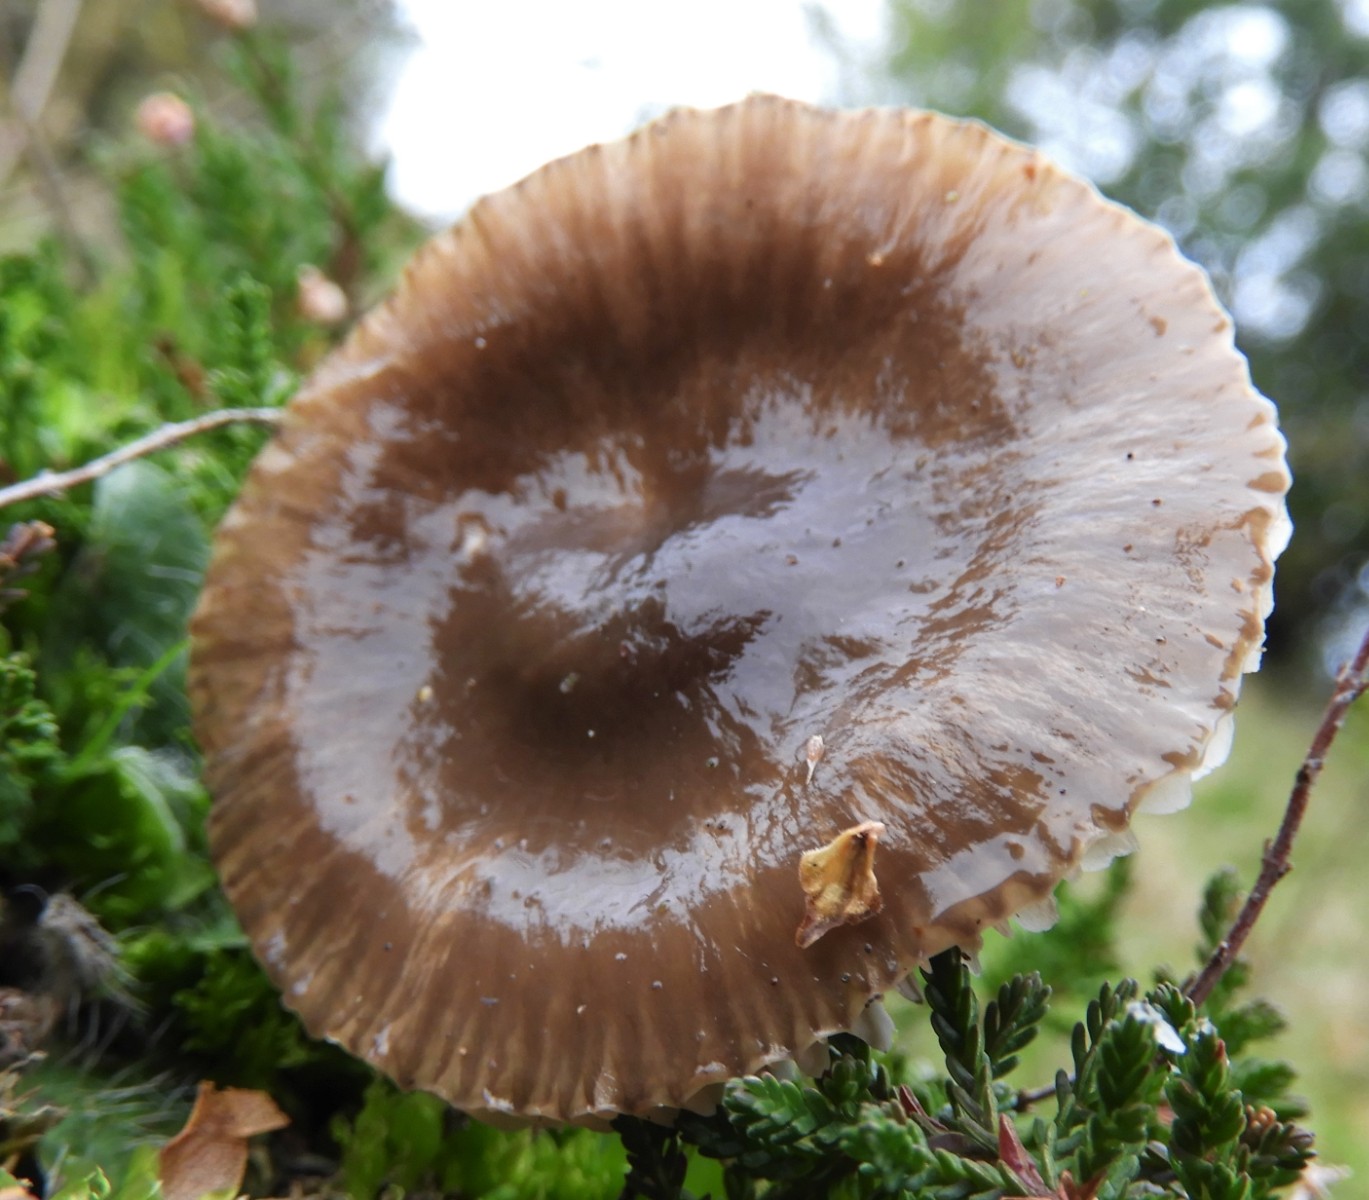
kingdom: Fungi
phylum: Basidiomycota
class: Agaricomycetes
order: Agaricales
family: Hygrophoraceae
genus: Gliophorus
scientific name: Gliophorus irrigatus
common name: slimet vokshat
